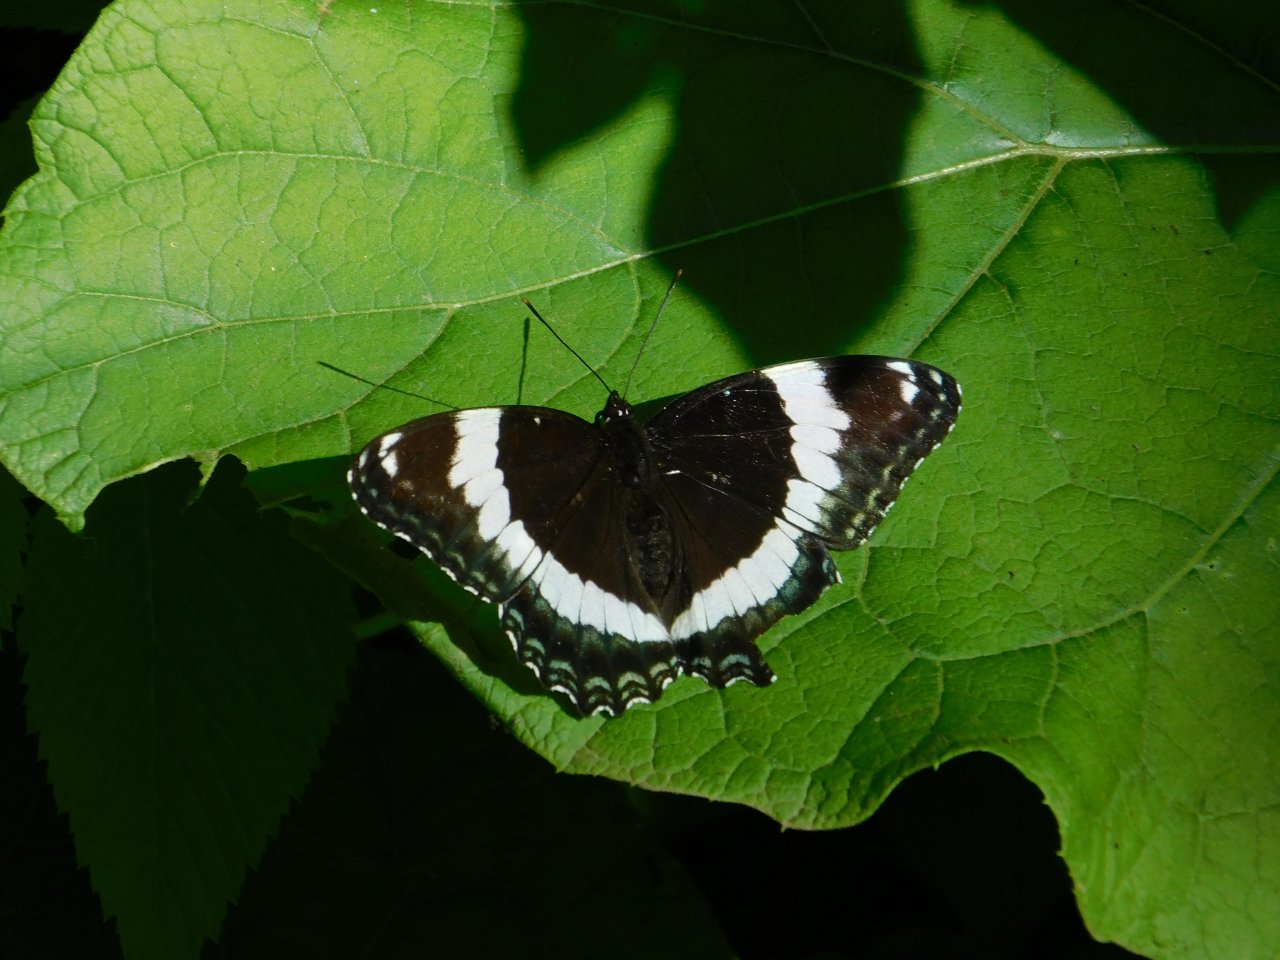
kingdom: Animalia
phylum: Arthropoda
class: Insecta
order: Lepidoptera
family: Nymphalidae
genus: Limenitis
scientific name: Limenitis arthemis
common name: Red-spotted Admiral
